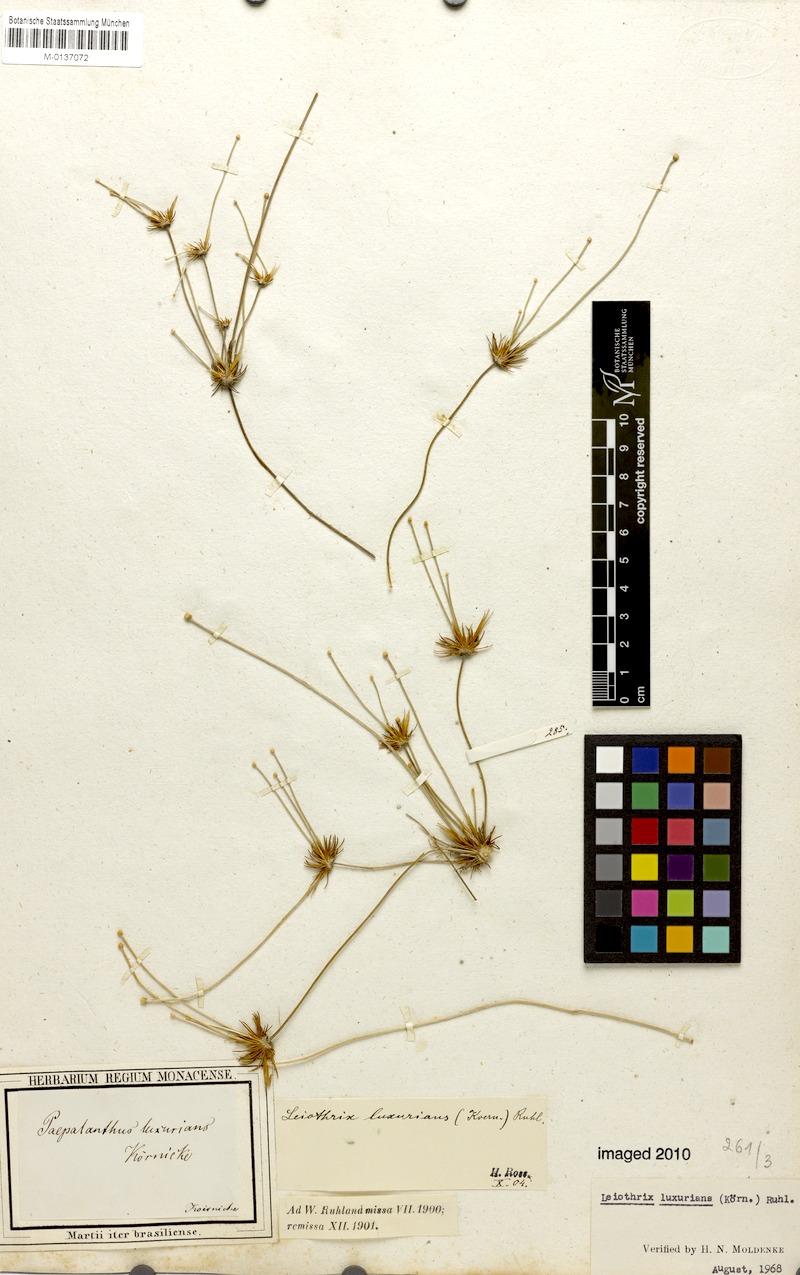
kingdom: Plantae
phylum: Tracheophyta
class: Liliopsida
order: Poales
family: Eriocaulaceae
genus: Leiothrix
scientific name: Leiothrix luxurians
